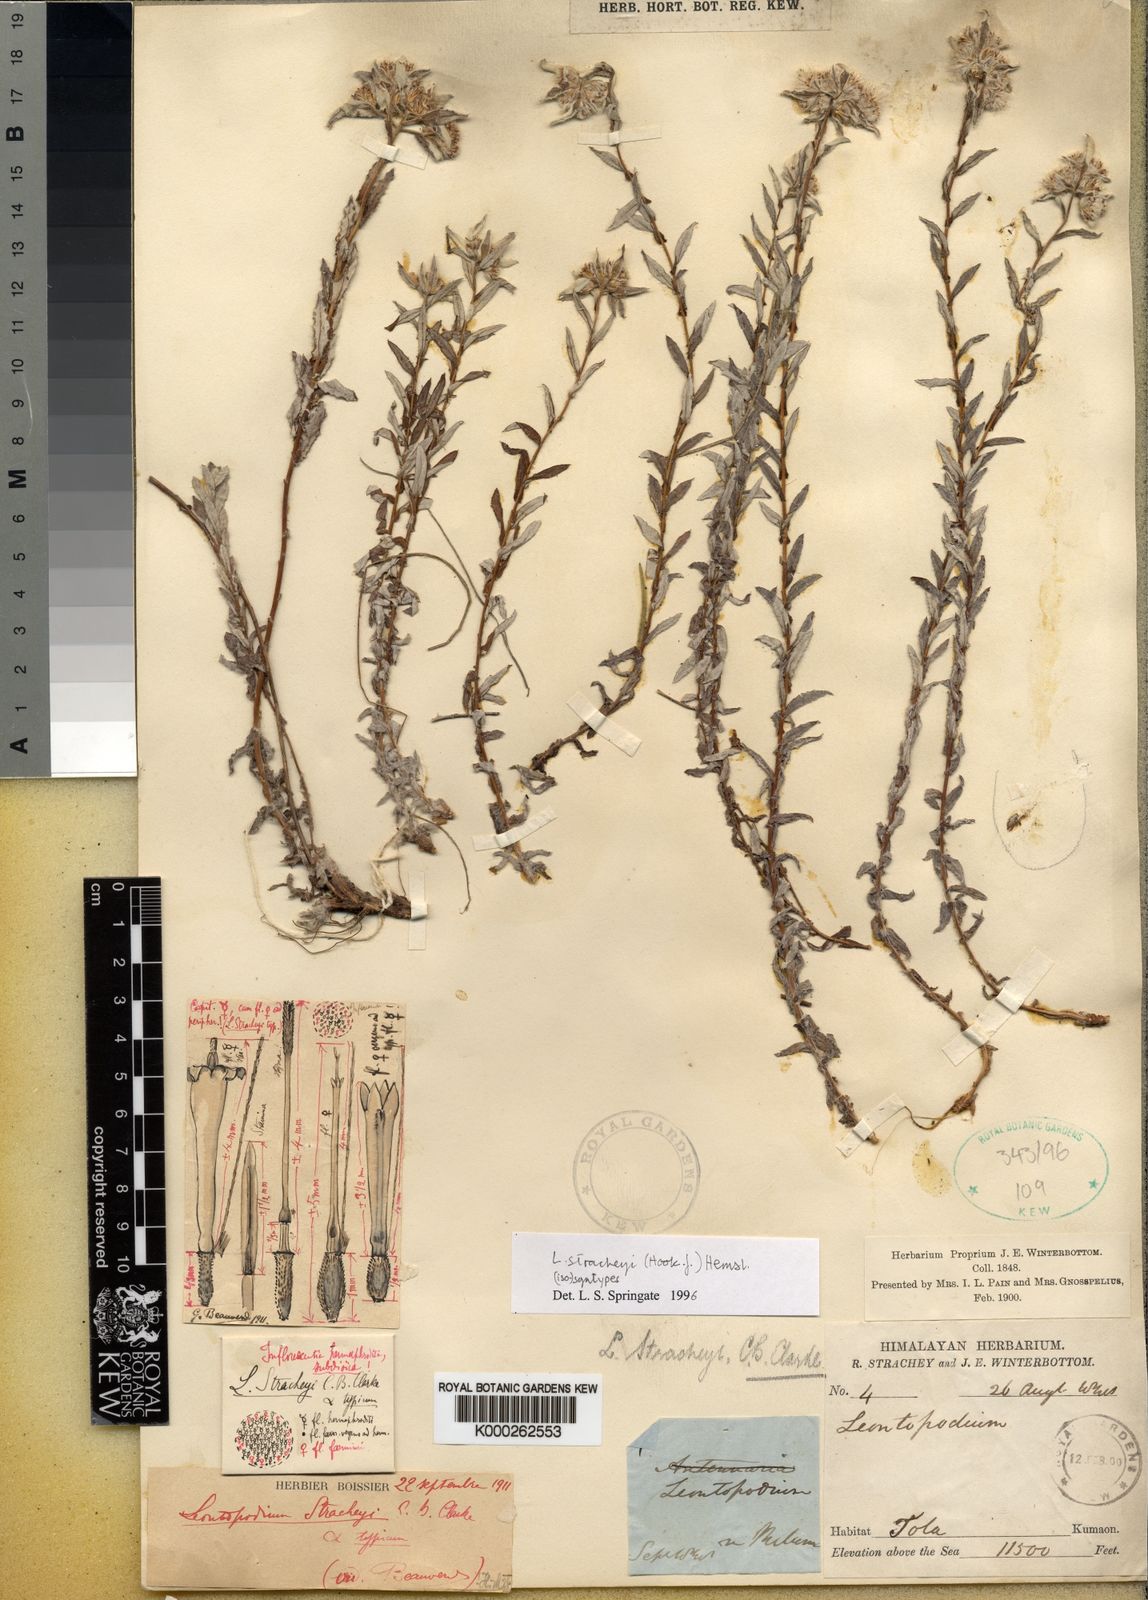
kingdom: Plantae
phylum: Tracheophyta
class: Magnoliopsida
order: Asterales
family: Asteraceae
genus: Leontopodium
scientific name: Leontopodium stracheyi
